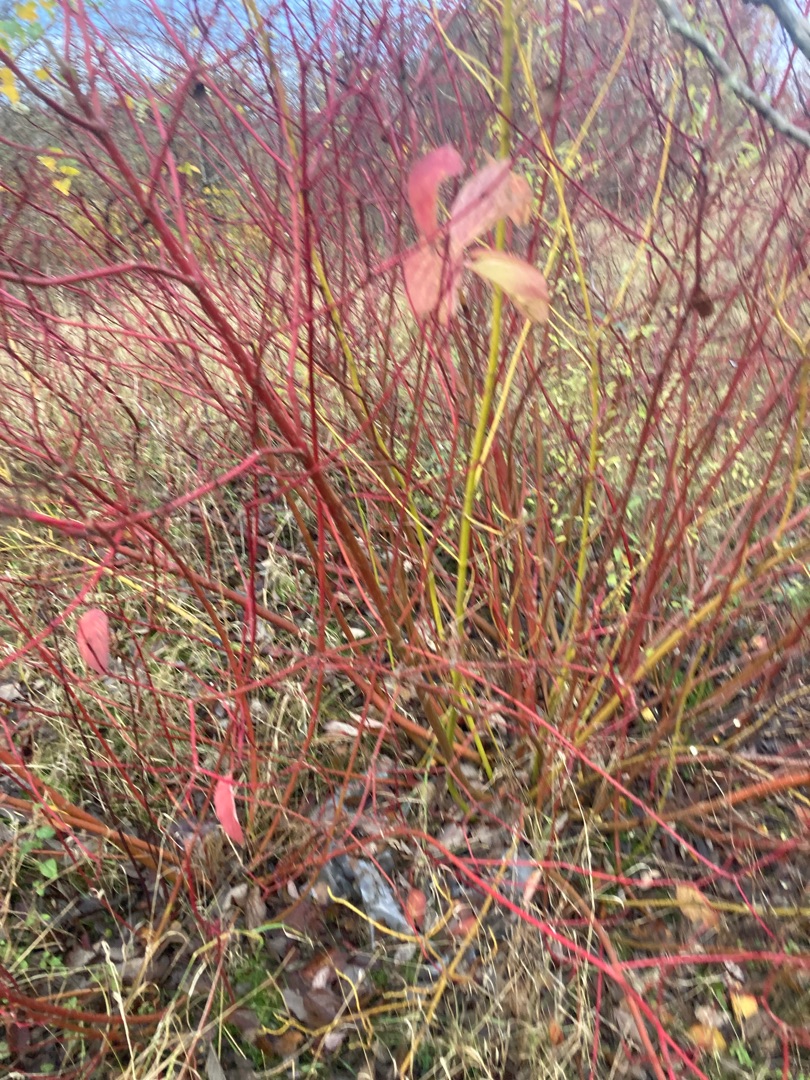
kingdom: Plantae
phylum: Tracheophyta
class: Magnoliopsida
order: Cornales
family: Cornaceae
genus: Cornus
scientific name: Cornus sanguinea
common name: Rød kornel
